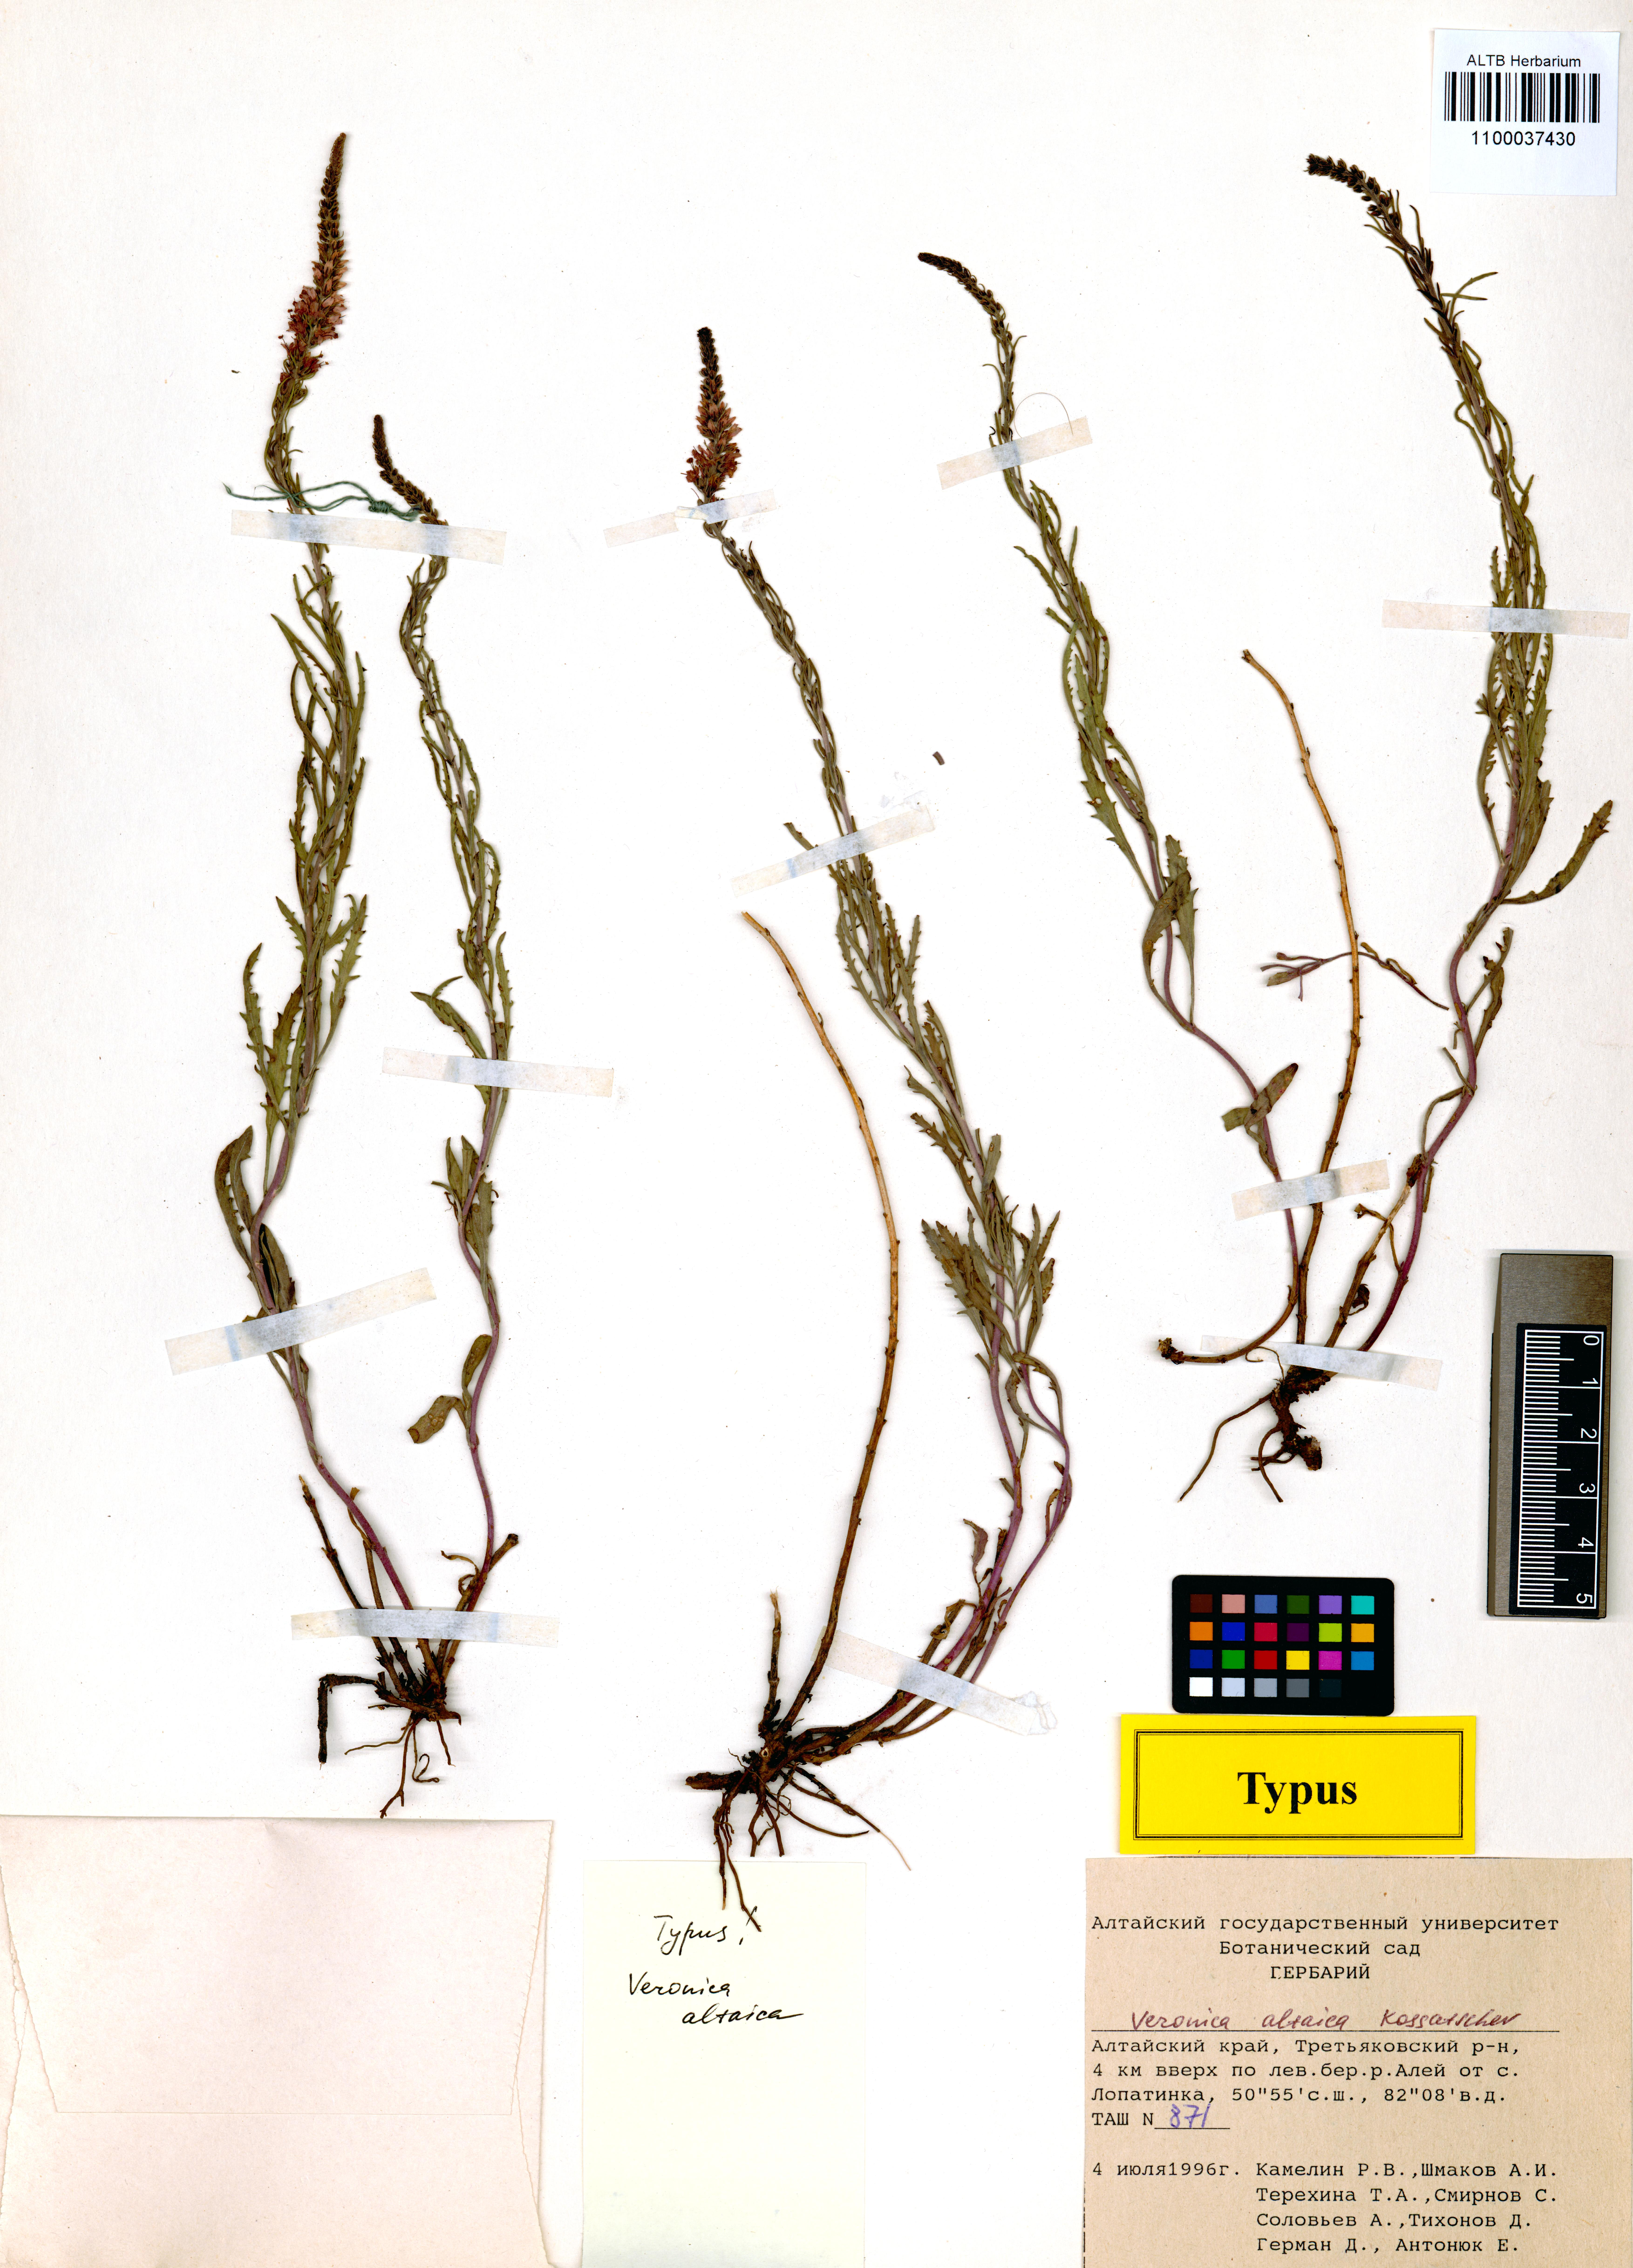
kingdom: Plantae
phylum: Tracheophyta
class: Magnoliopsida
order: Lamiales
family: Plantaginaceae
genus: Veronica
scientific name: Veronica altaica
